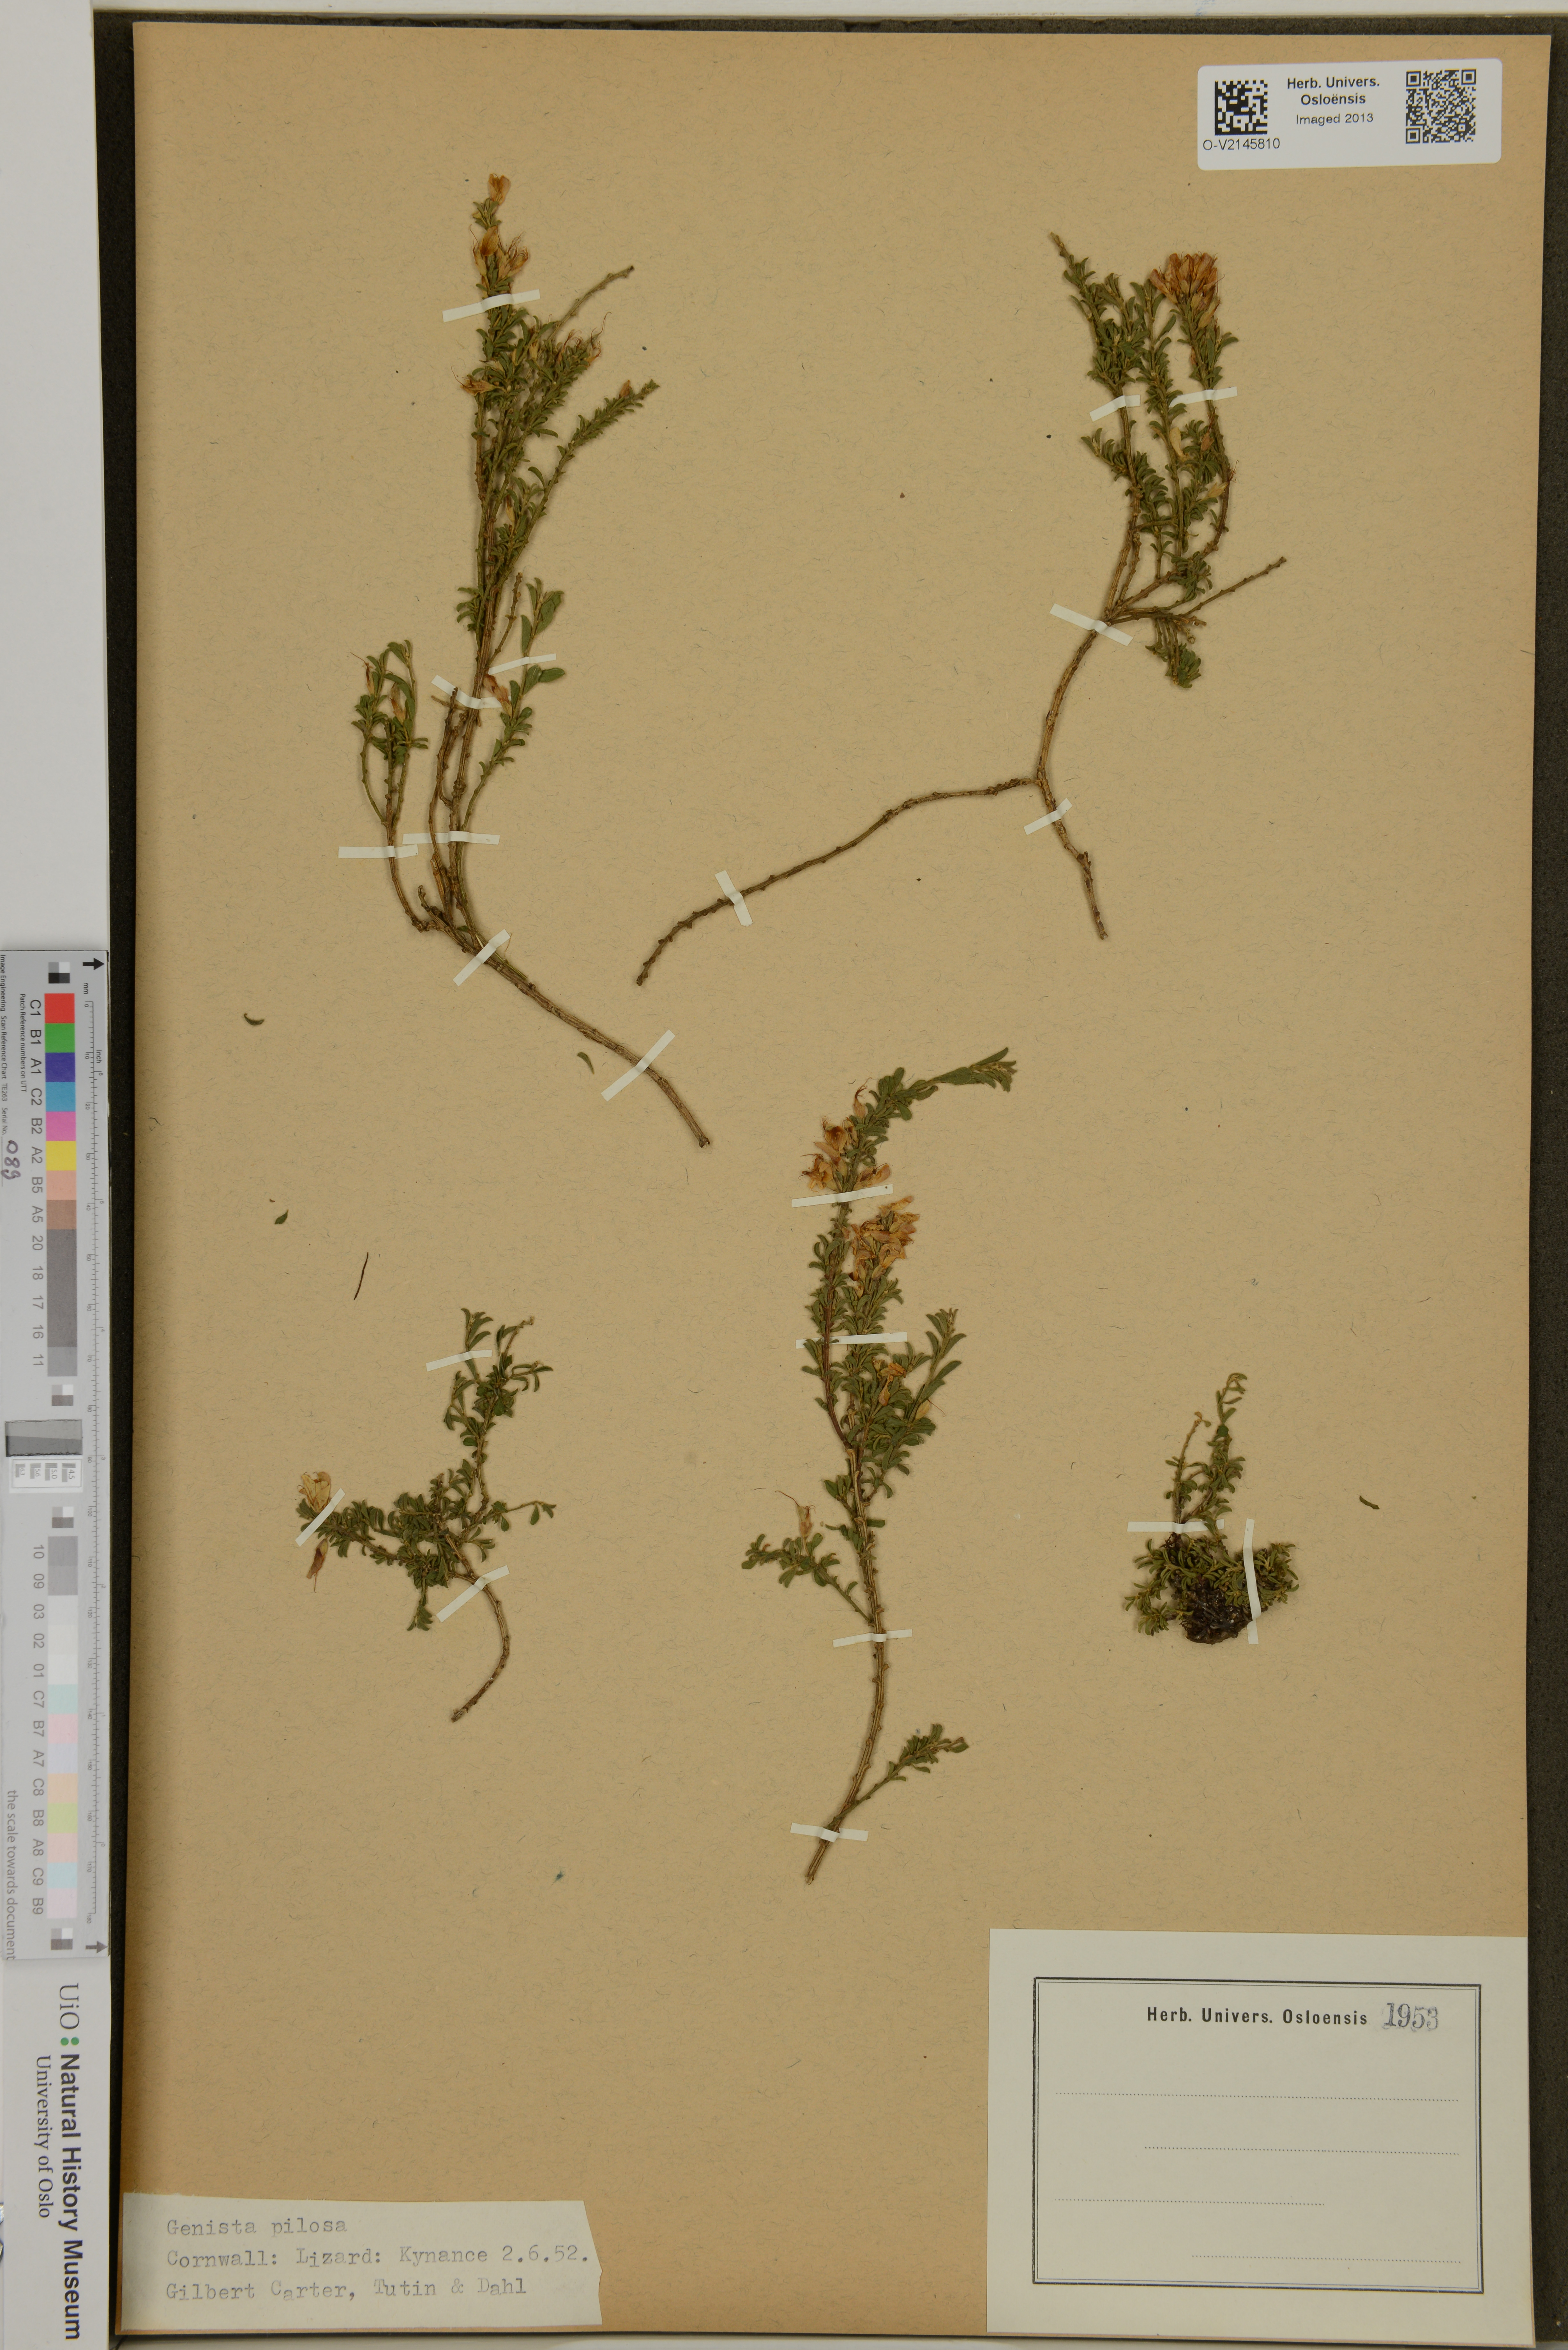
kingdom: Plantae
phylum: Tracheophyta
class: Magnoliopsida
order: Fabales
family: Fabaceae
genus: Genista
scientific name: Genista pilosa
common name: Hairy greenweed
